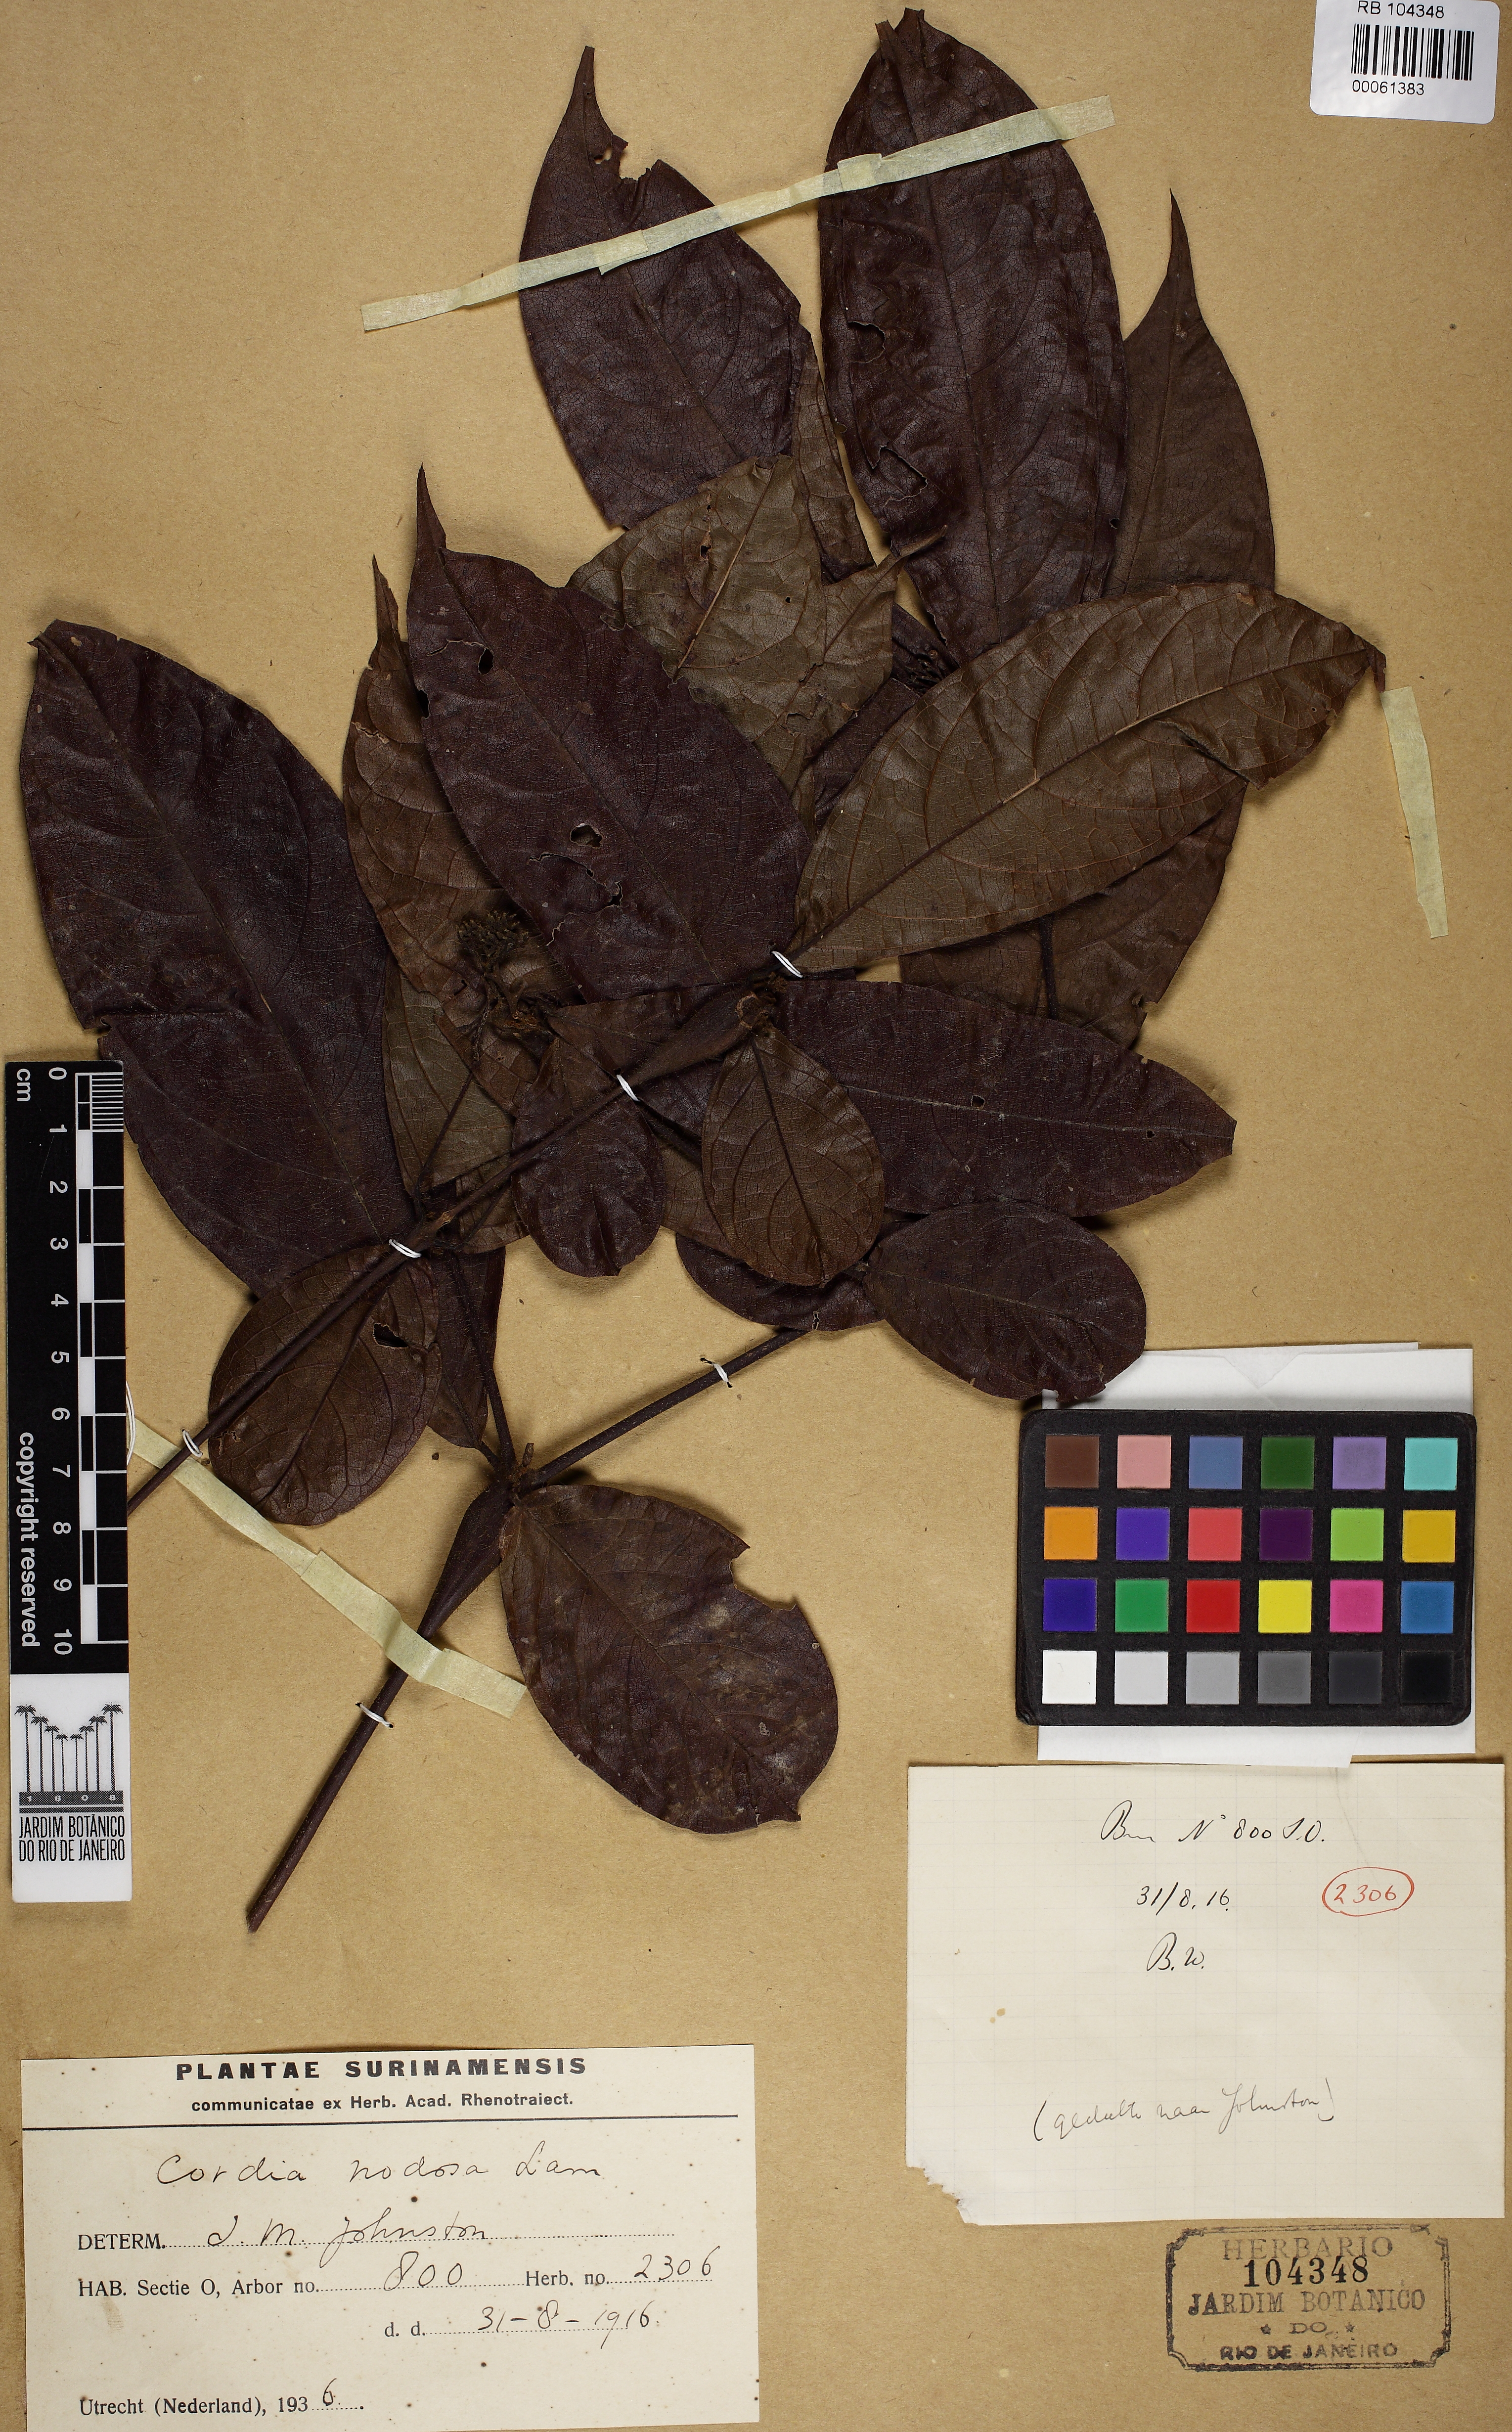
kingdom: Plantae
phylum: Tracheophyta
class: Magnoliopsida
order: Boraginales
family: Cordiaceae
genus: Cordia
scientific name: Cordia nodosa
